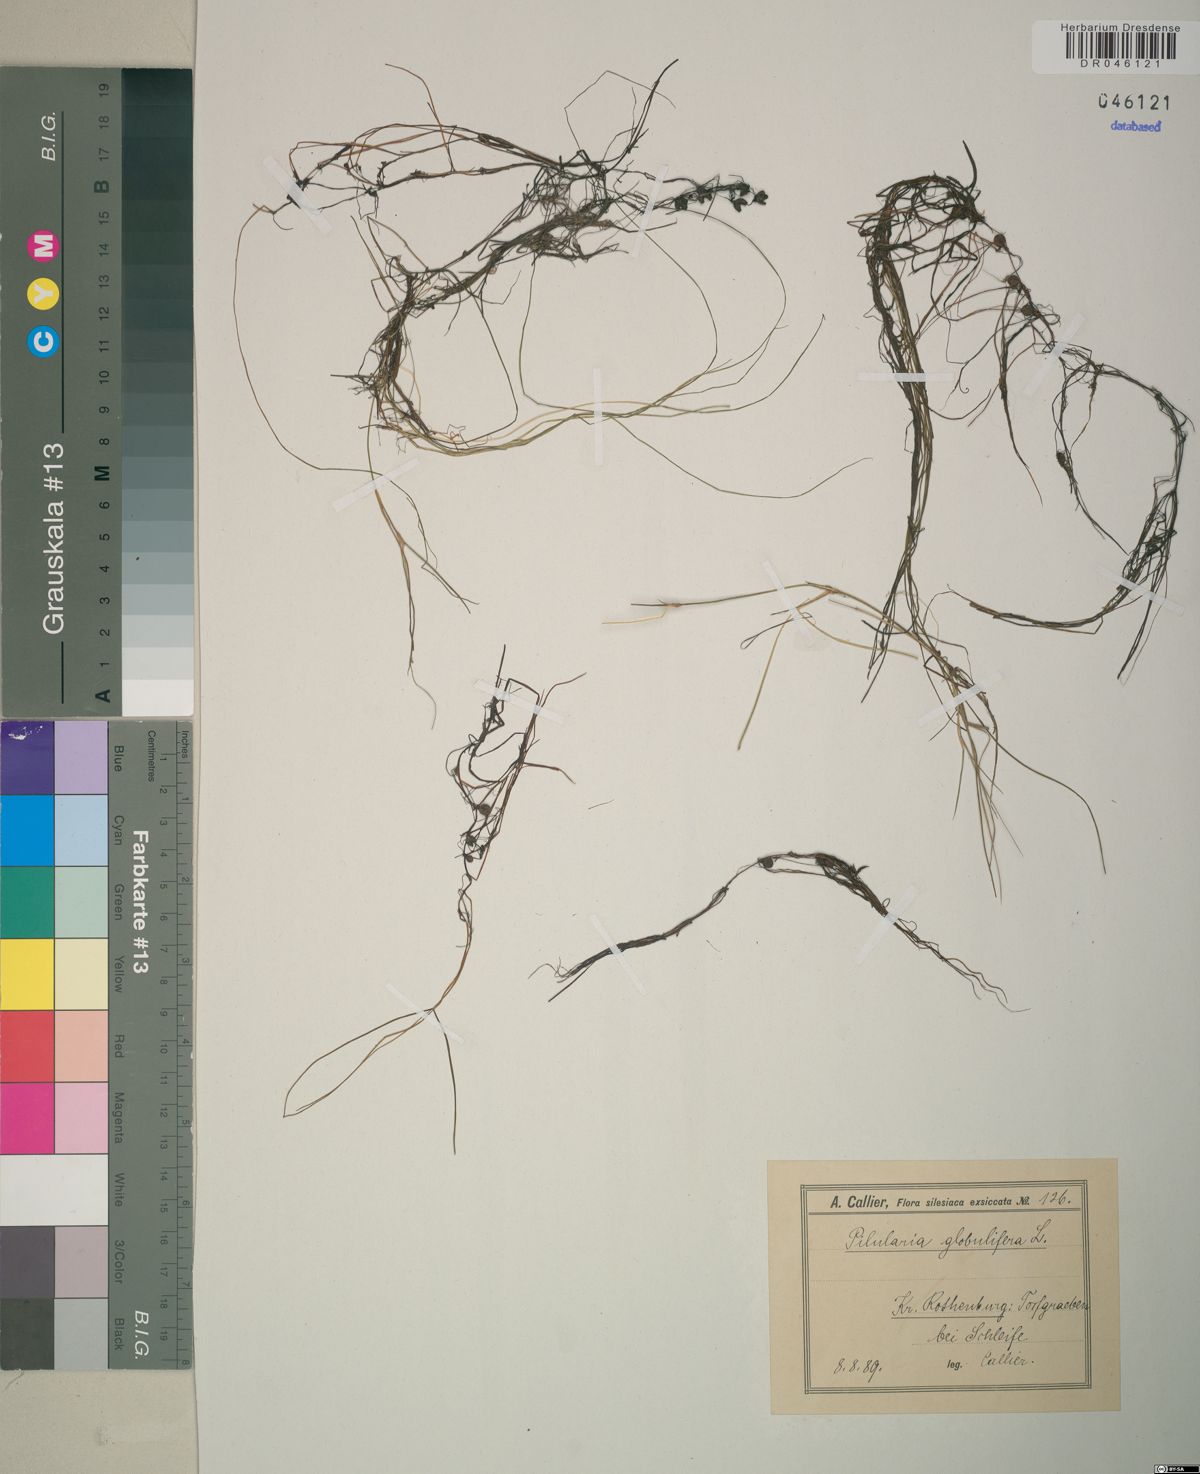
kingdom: Plantae
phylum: Tracheophyta
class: Polypodiopsida
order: Salviniales
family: Marsileaceae
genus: Pilularia
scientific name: Pilularia globulifera
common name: Pillwort
